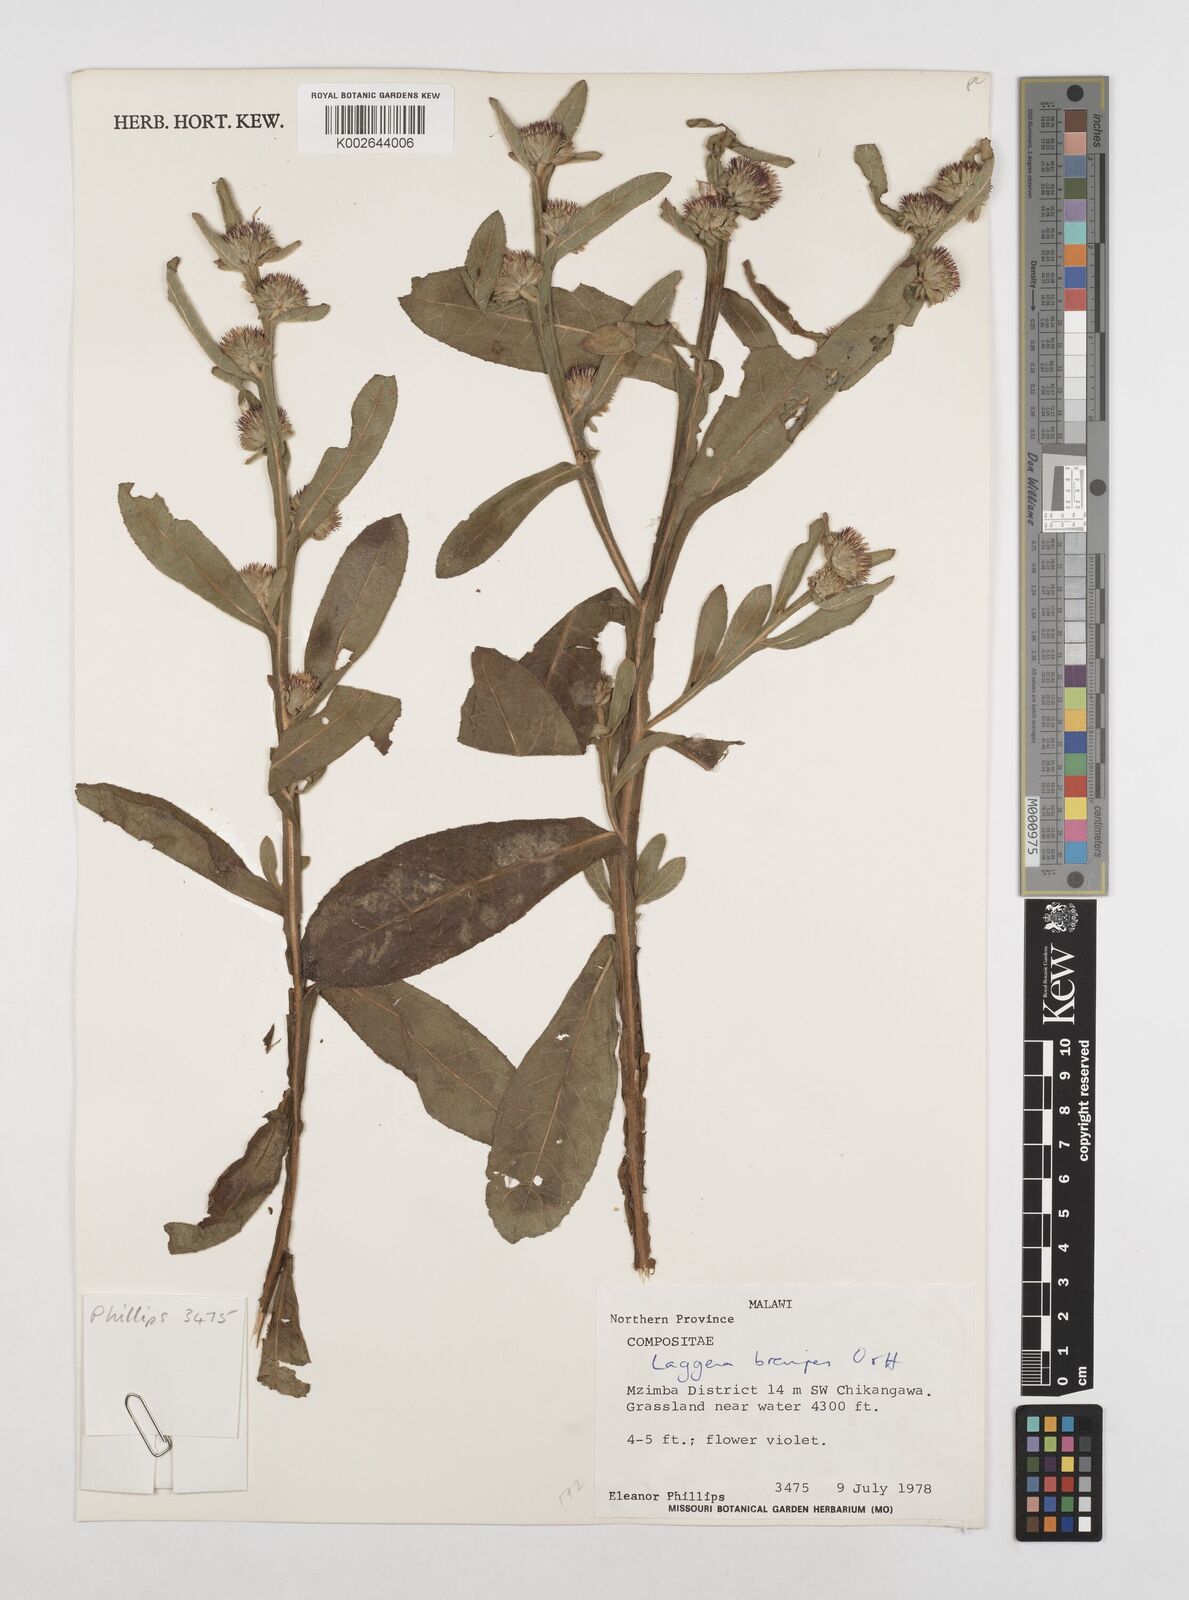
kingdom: Plantae
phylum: Tracheophyta
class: Magnoliopsida
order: Asterales
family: Asteraceae
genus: Laggera
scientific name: Laggera brevipes
